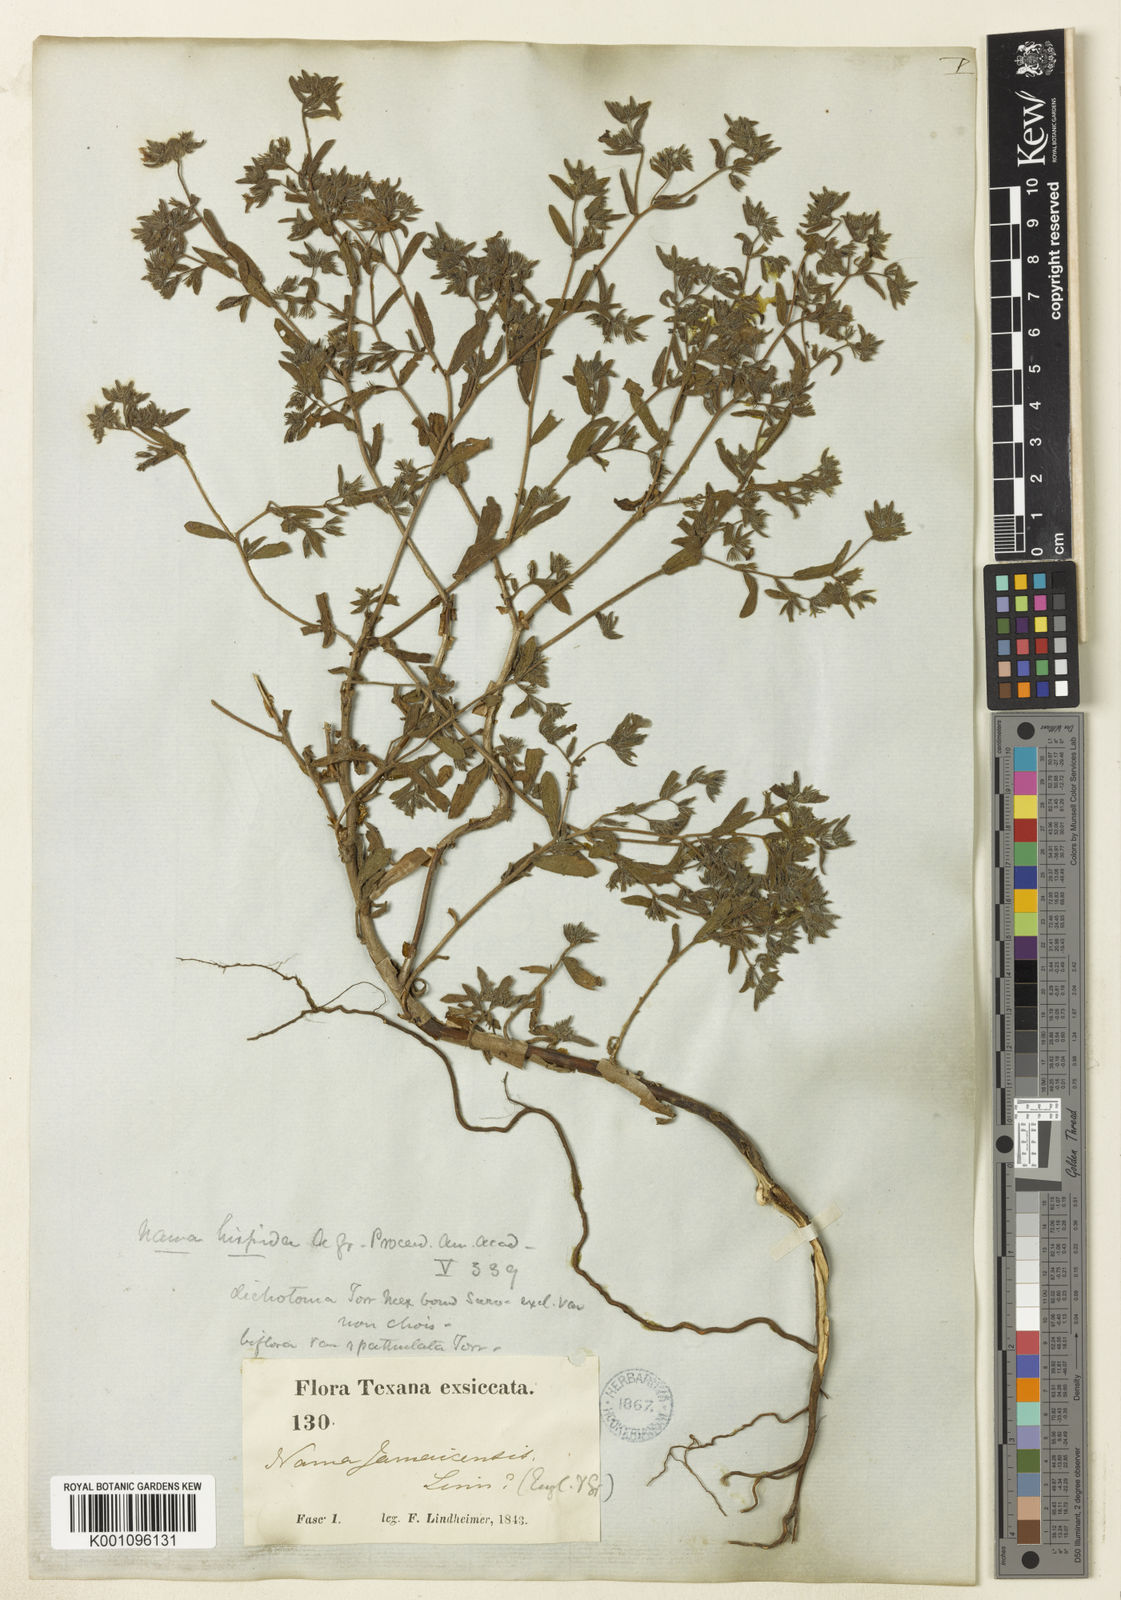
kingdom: Plantae
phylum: Tracheophyta
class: Magnoliopsida
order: Boraginales
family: Namaceae
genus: Nama
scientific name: Nama hispida
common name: Bristly nama
